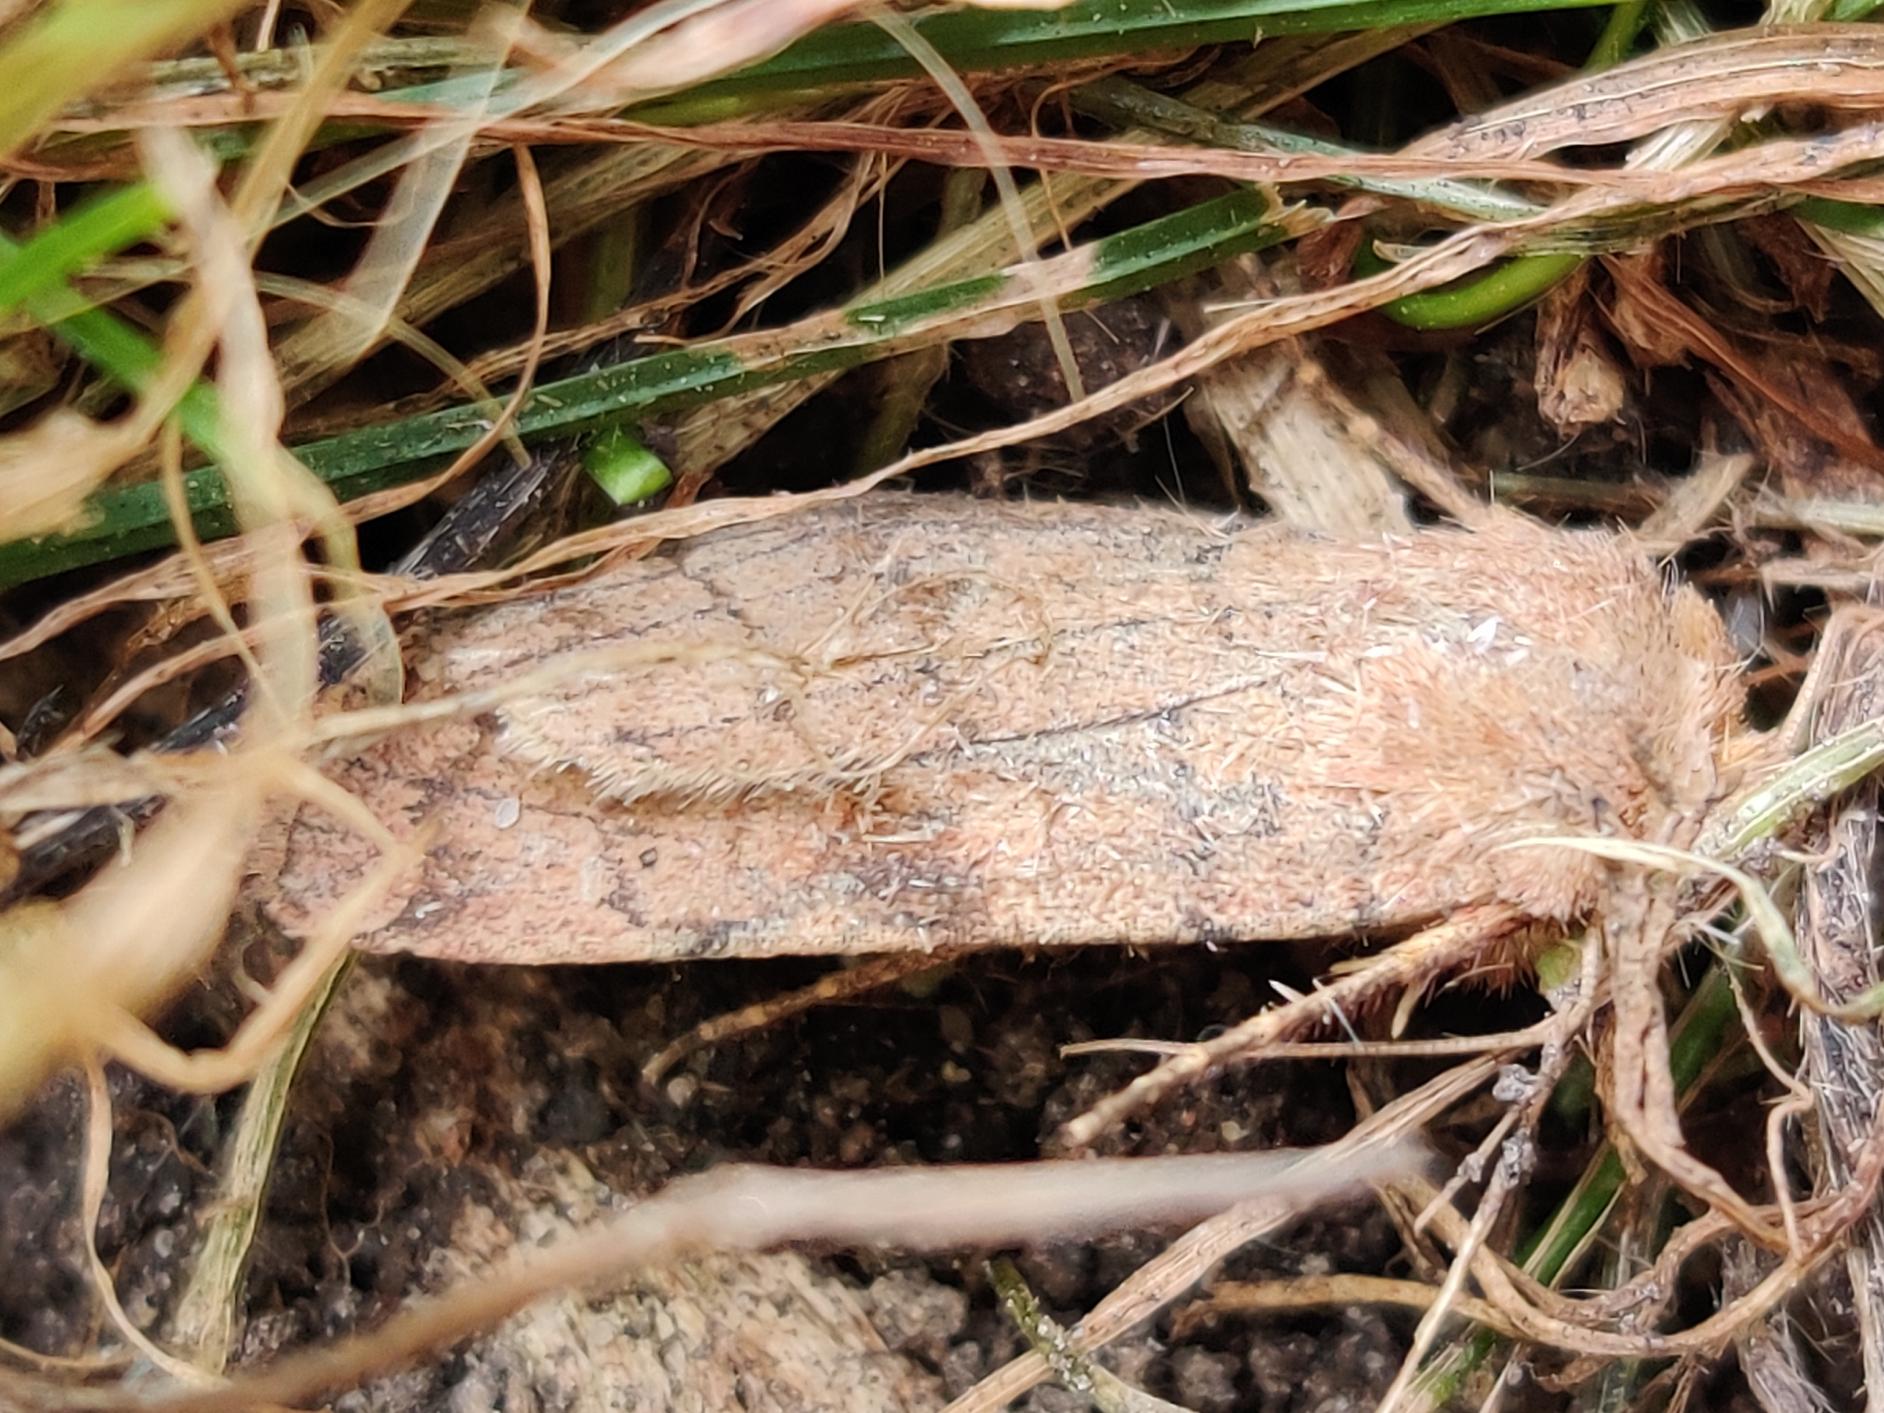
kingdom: Animalia
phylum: Arthropoda
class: Insecta
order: Lepidoptera
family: Noctuidae
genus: Xestia
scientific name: Xestia sexstrigata
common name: Seksliniet glansugle
